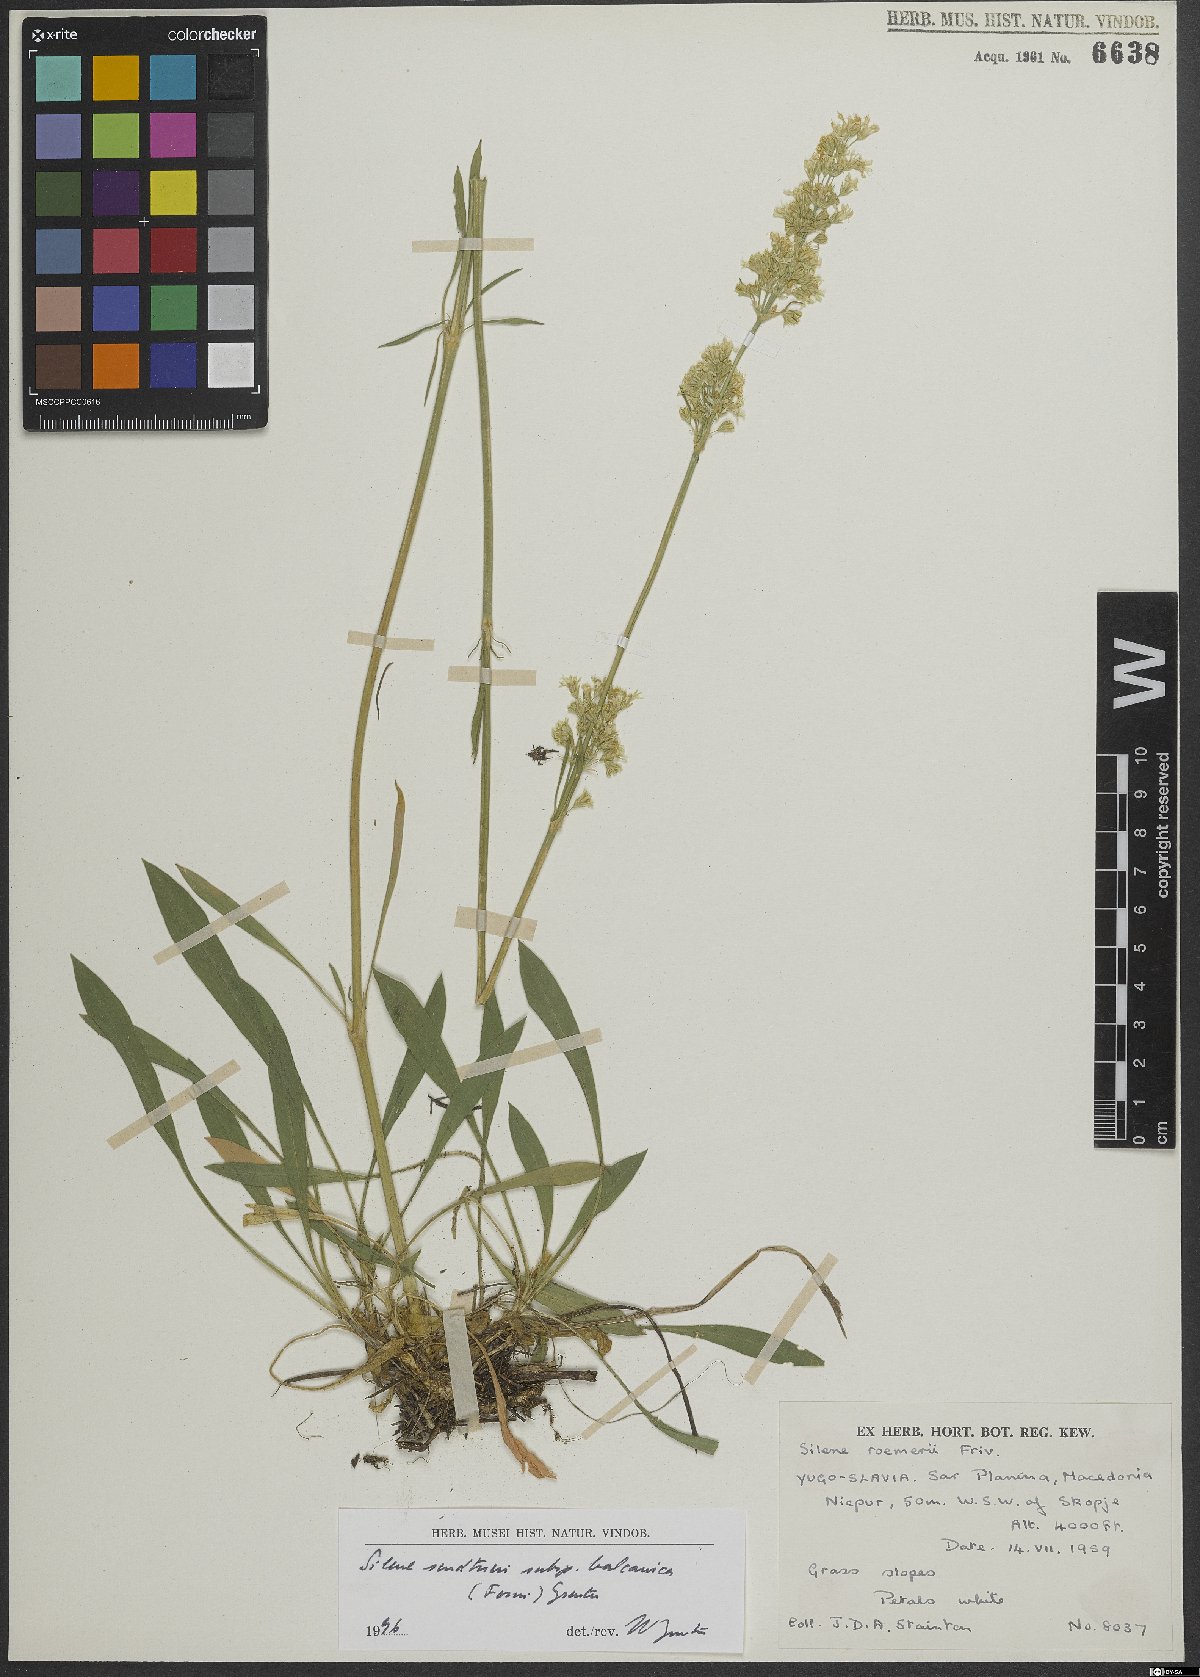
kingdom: Plantae
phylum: Tracheophyta
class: Magnoliopsida
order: Caryophyllales
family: Caryophyllaceae
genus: Silene
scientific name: Silene sendtneri
